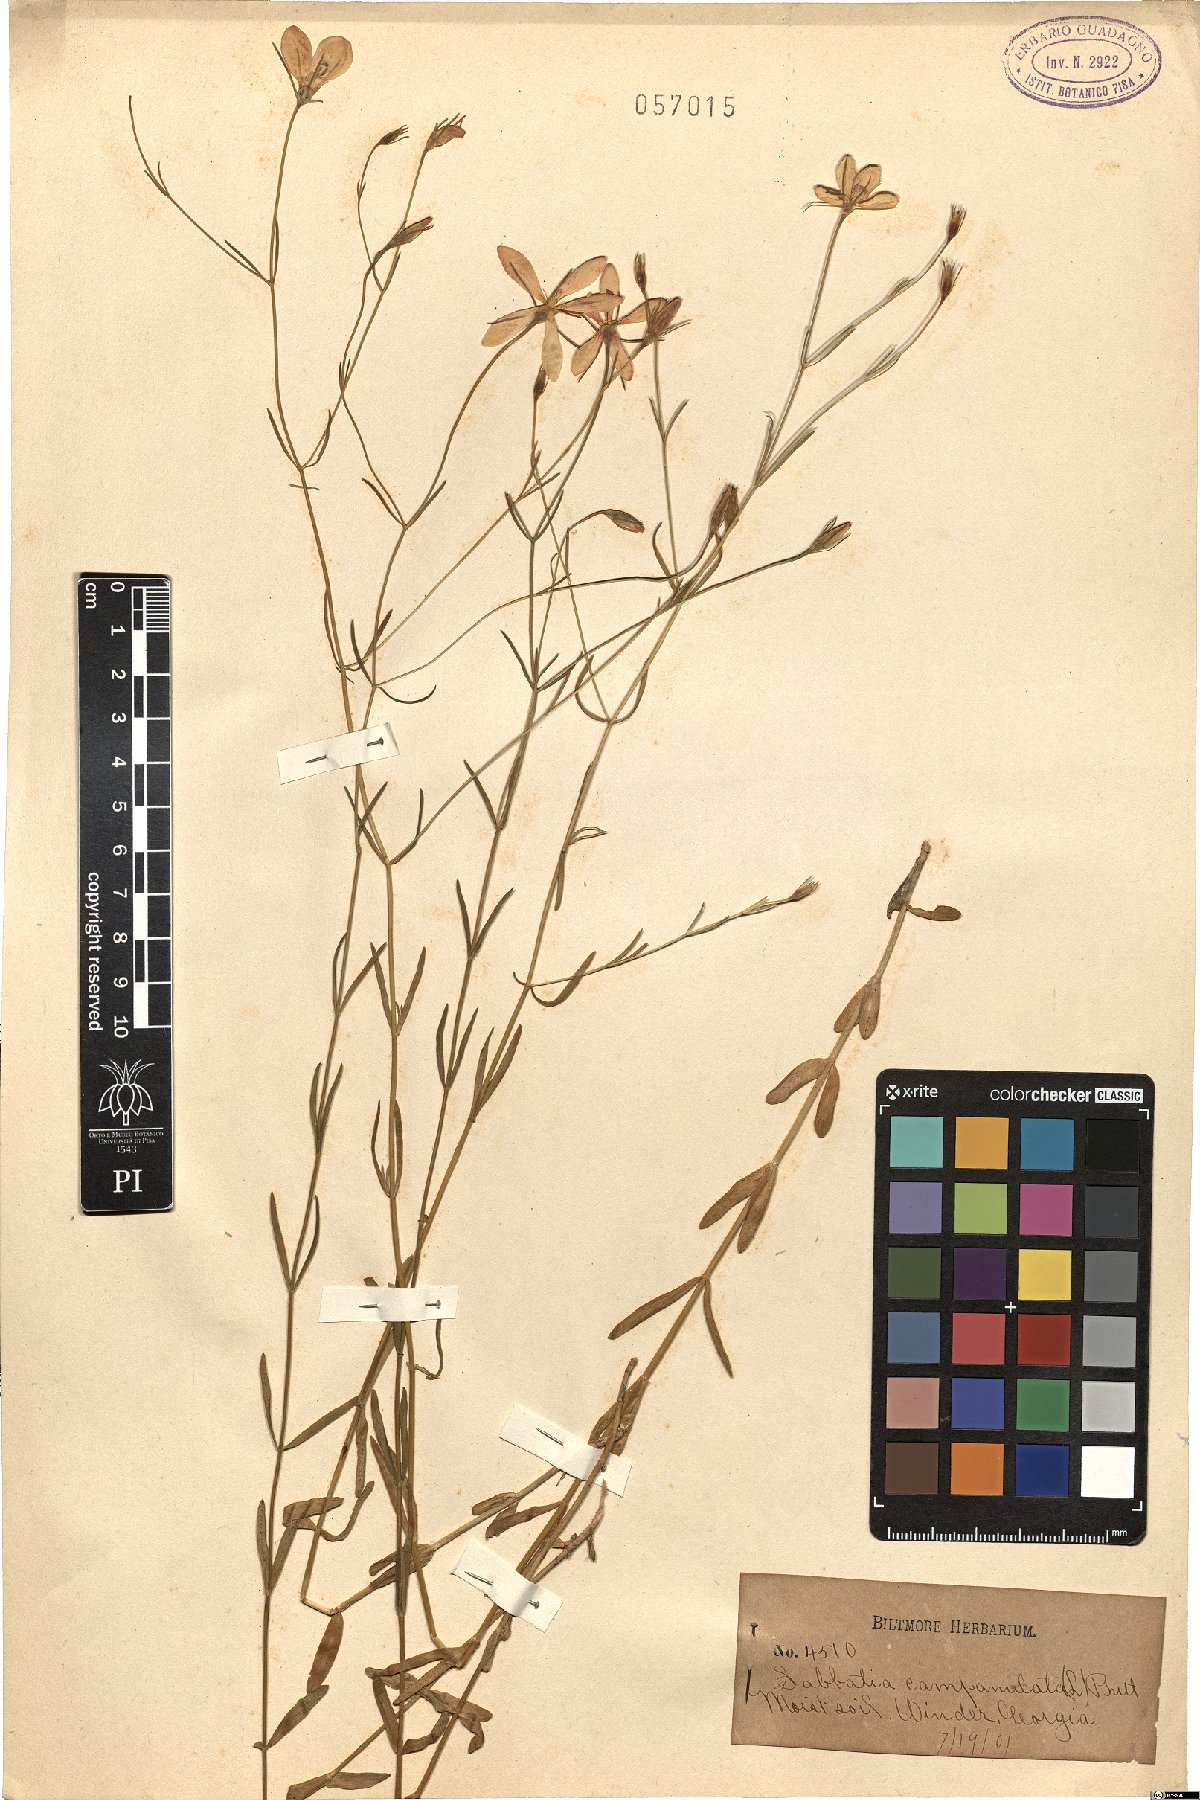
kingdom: Plantae
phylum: Tracheophyta
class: Magnoliopsida
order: Gentianales
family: Gentianaceae
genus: Sabbatia
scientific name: Sabbatia
